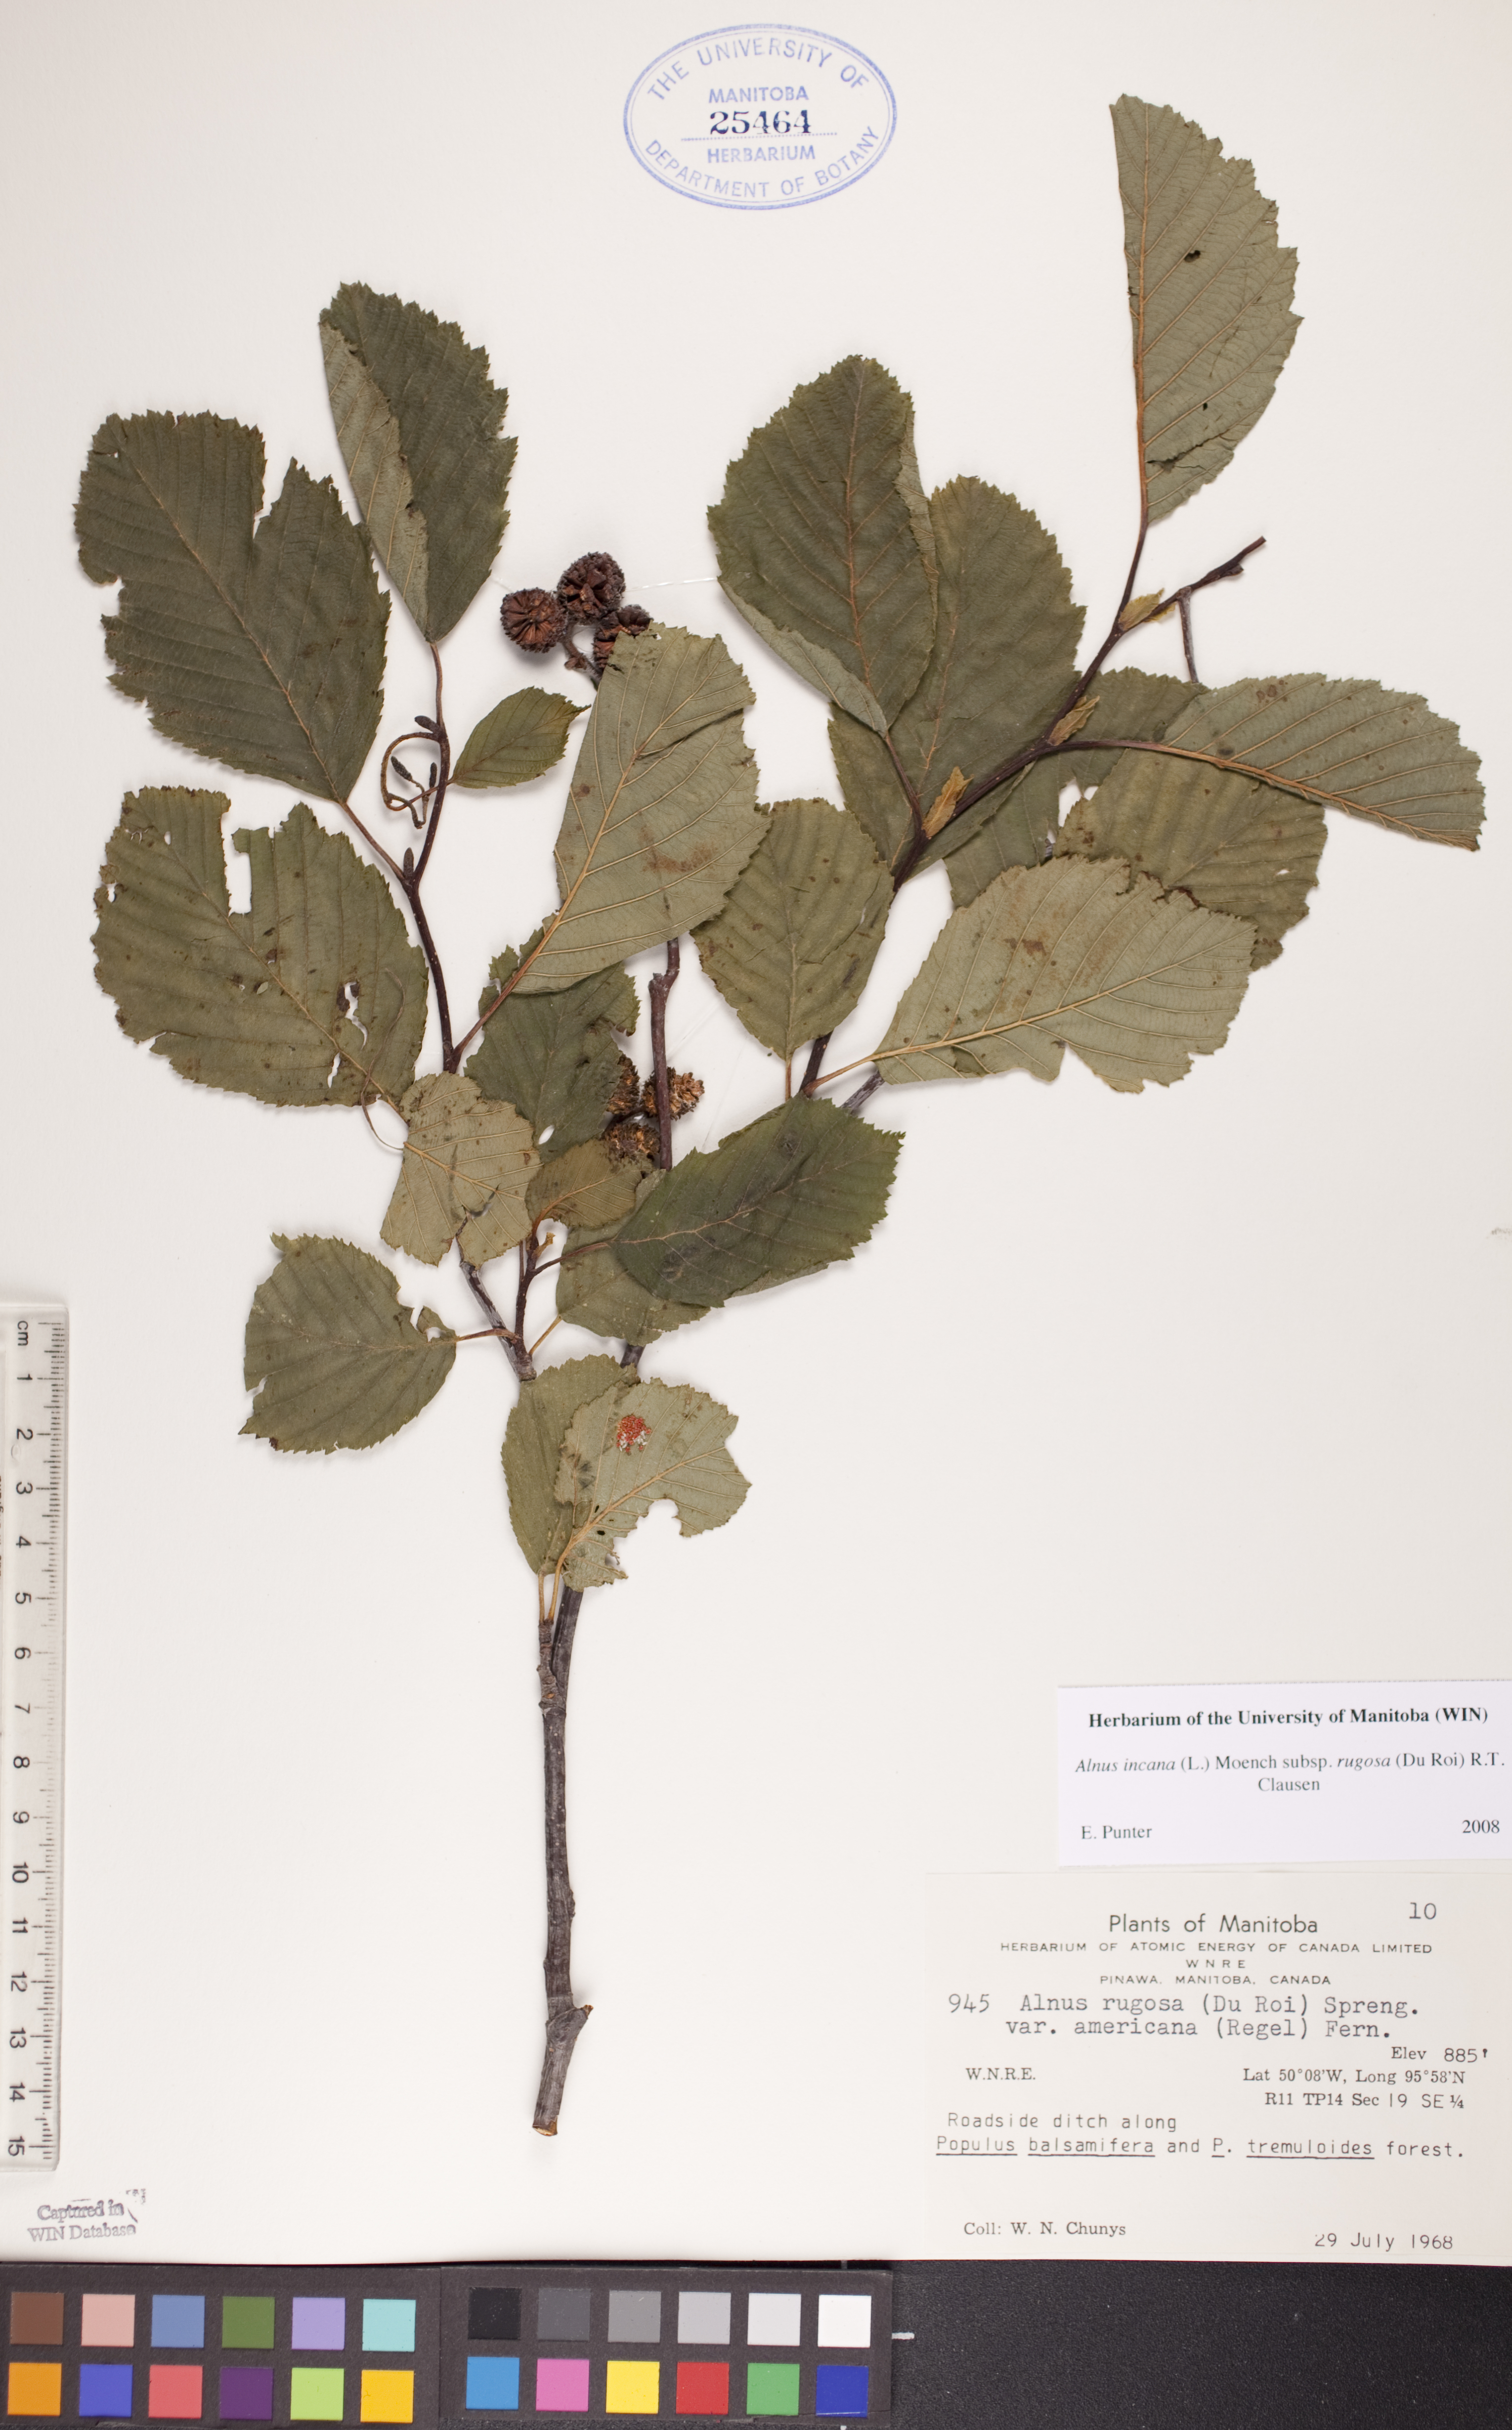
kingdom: Plantae
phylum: Tracheophyta
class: Magnoliopsida
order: Fagales
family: Betulaceae
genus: Alnus
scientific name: Alnus incana
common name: Grey alder
